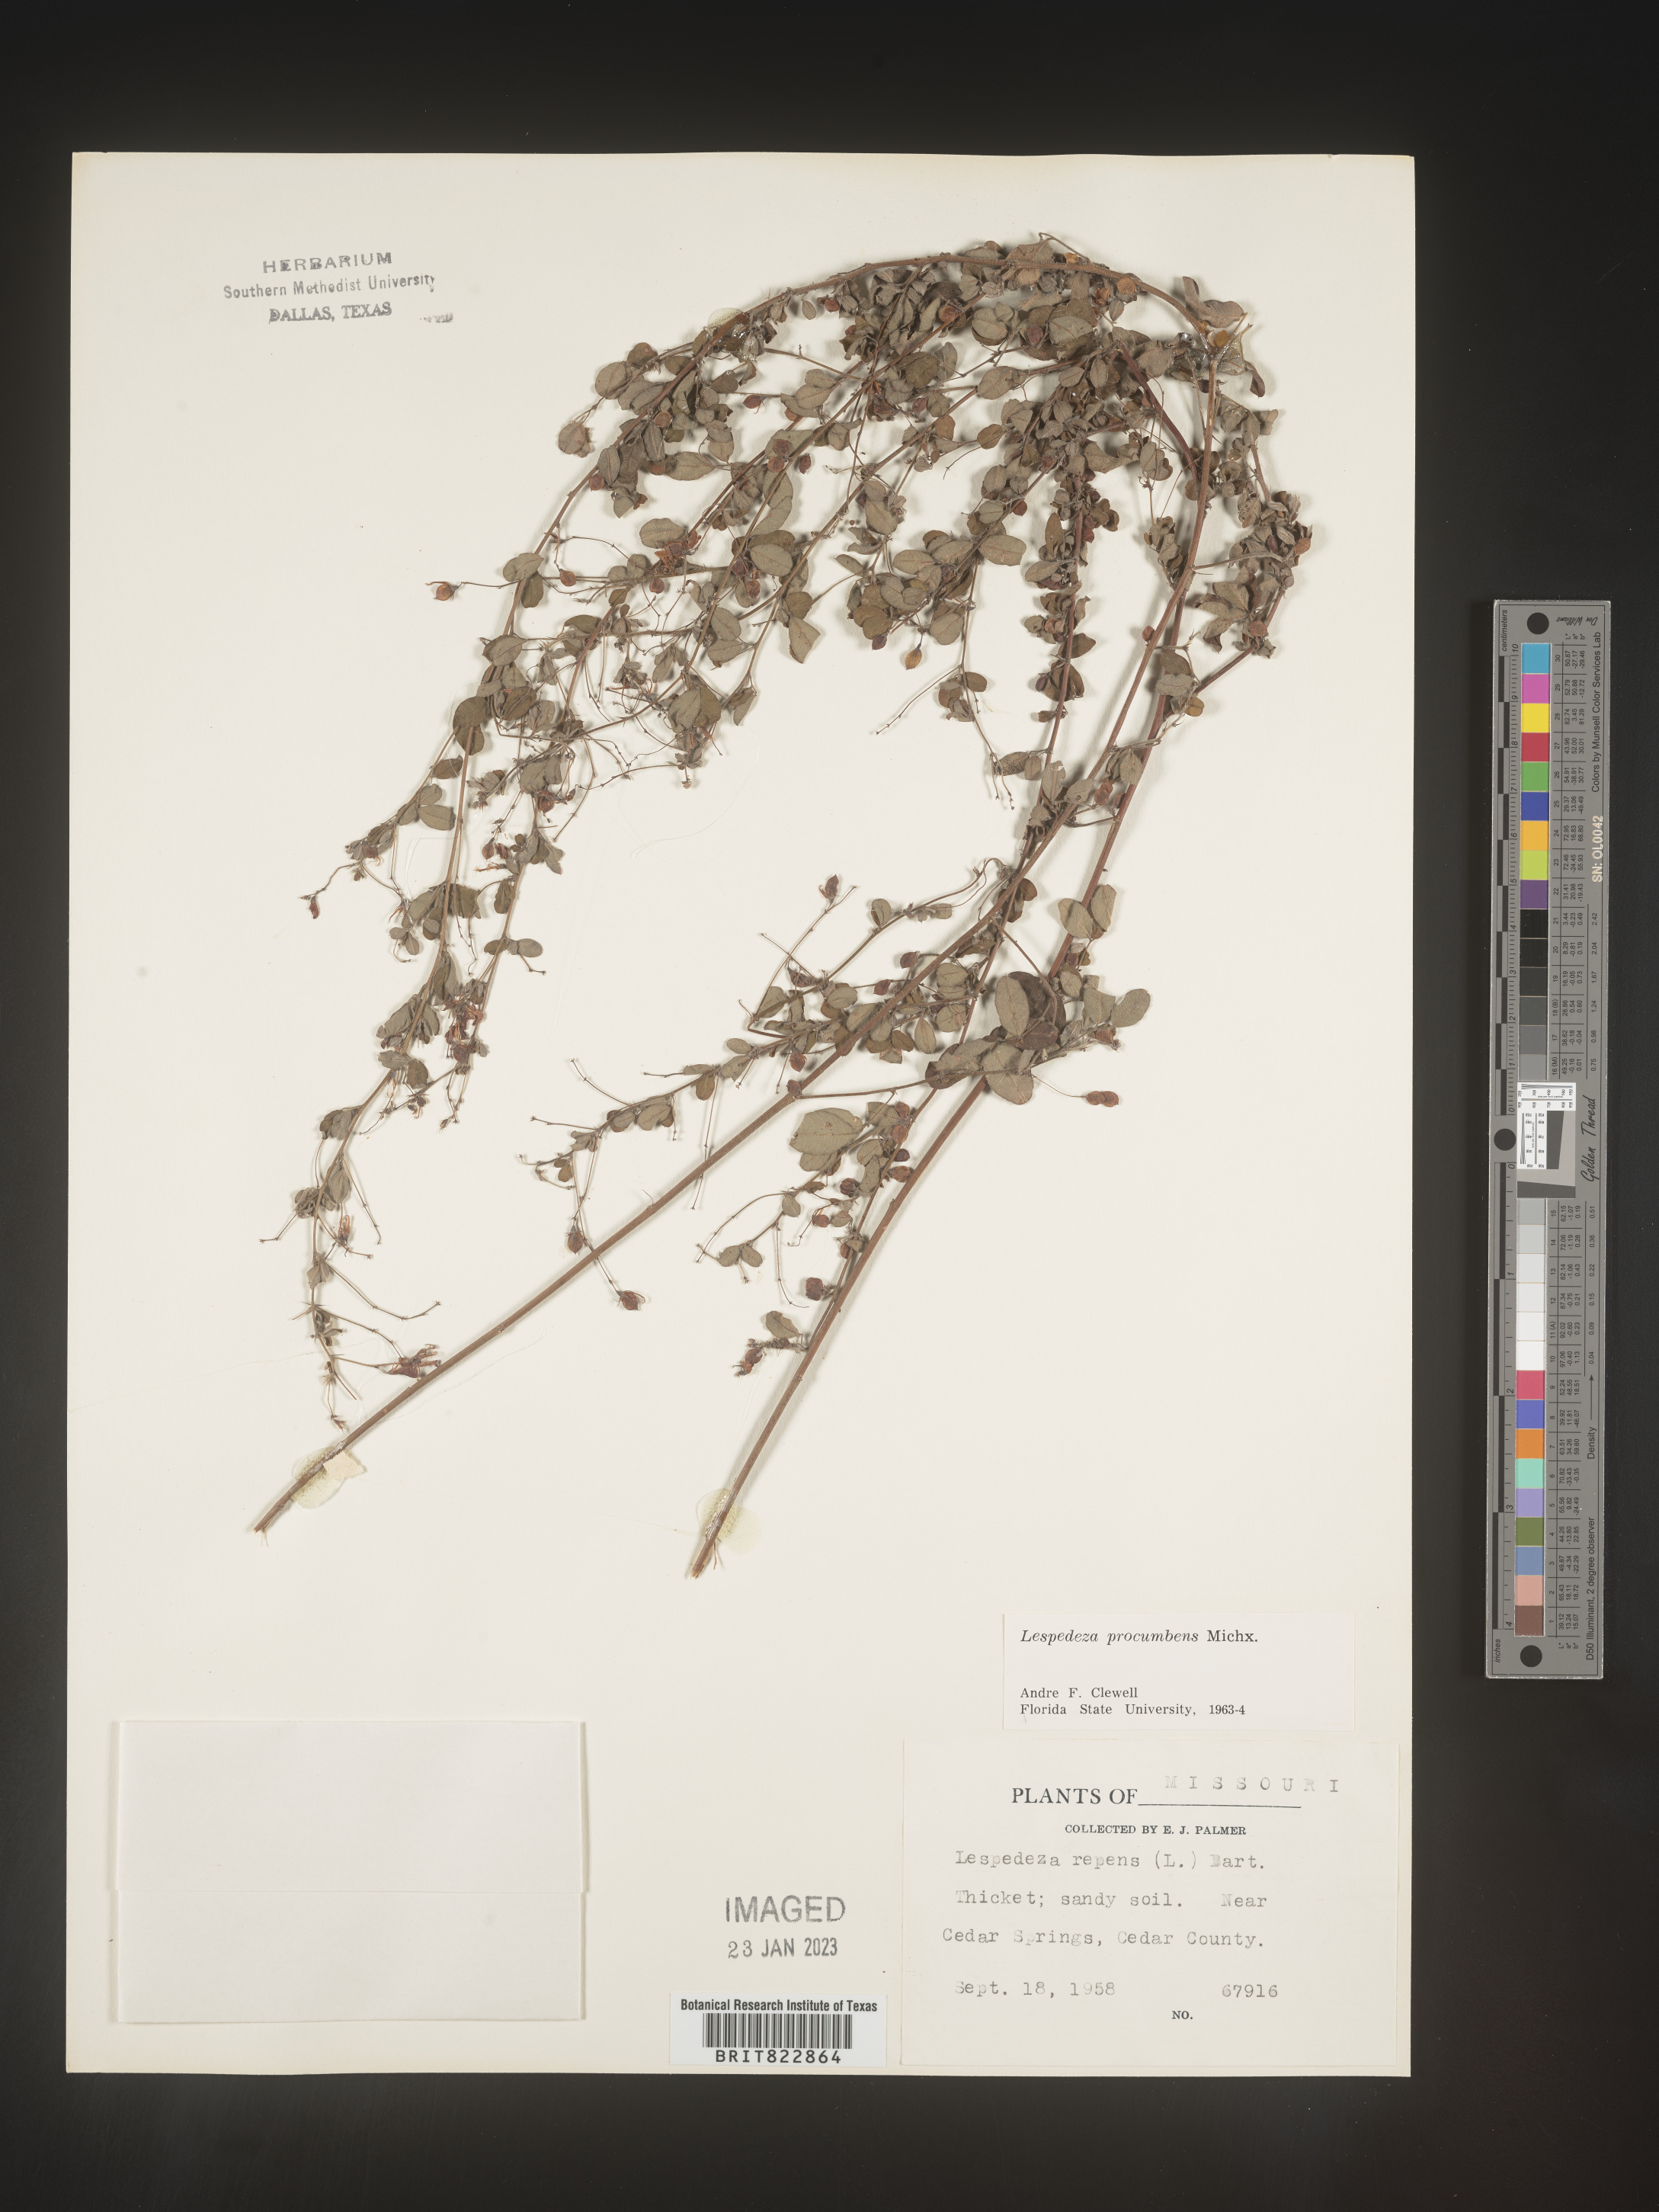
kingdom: Plantae
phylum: Tracheophyta
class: Magnoliopsida
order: Fabales
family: Fabaceae
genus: Lespedeza
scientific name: Lespedeza procumbens
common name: Downy trailing bush-clover
